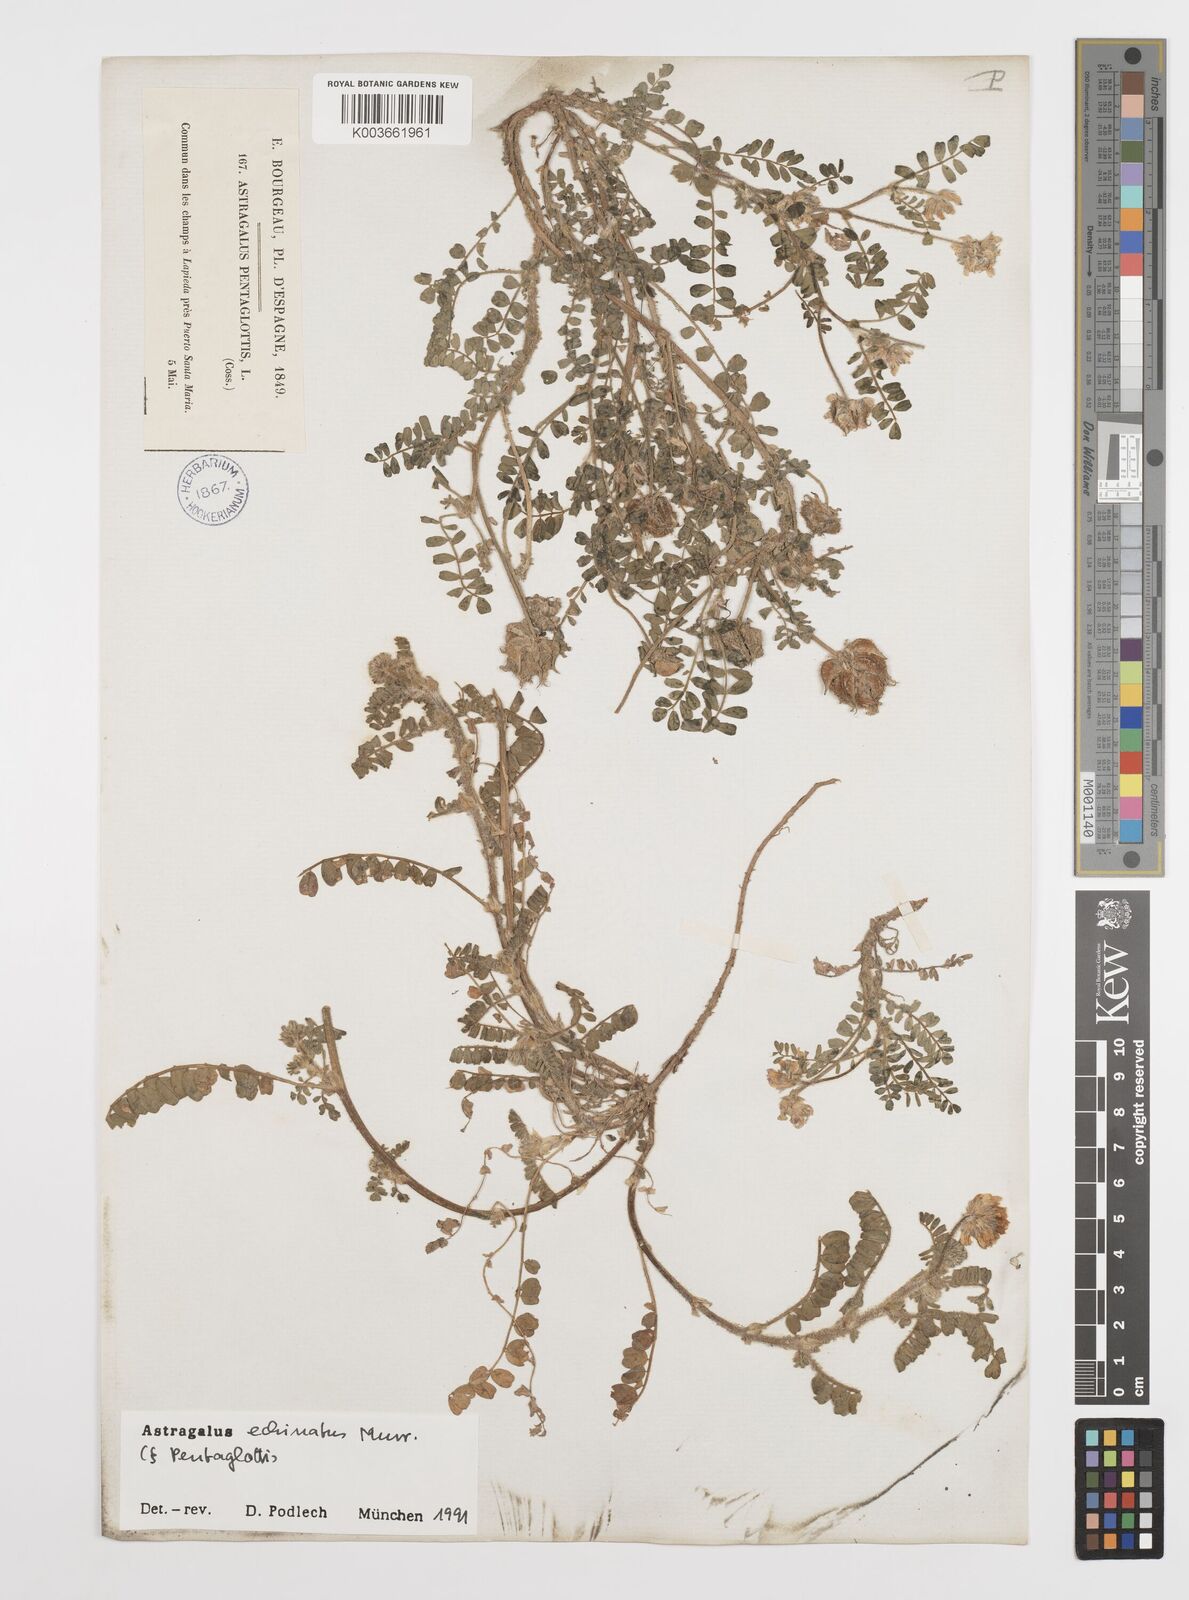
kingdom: Plantae
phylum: Tracheophyta
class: Magnoliopsida
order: Fabales
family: Fabaceae
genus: Astragalus
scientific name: Astragalus echinatus
